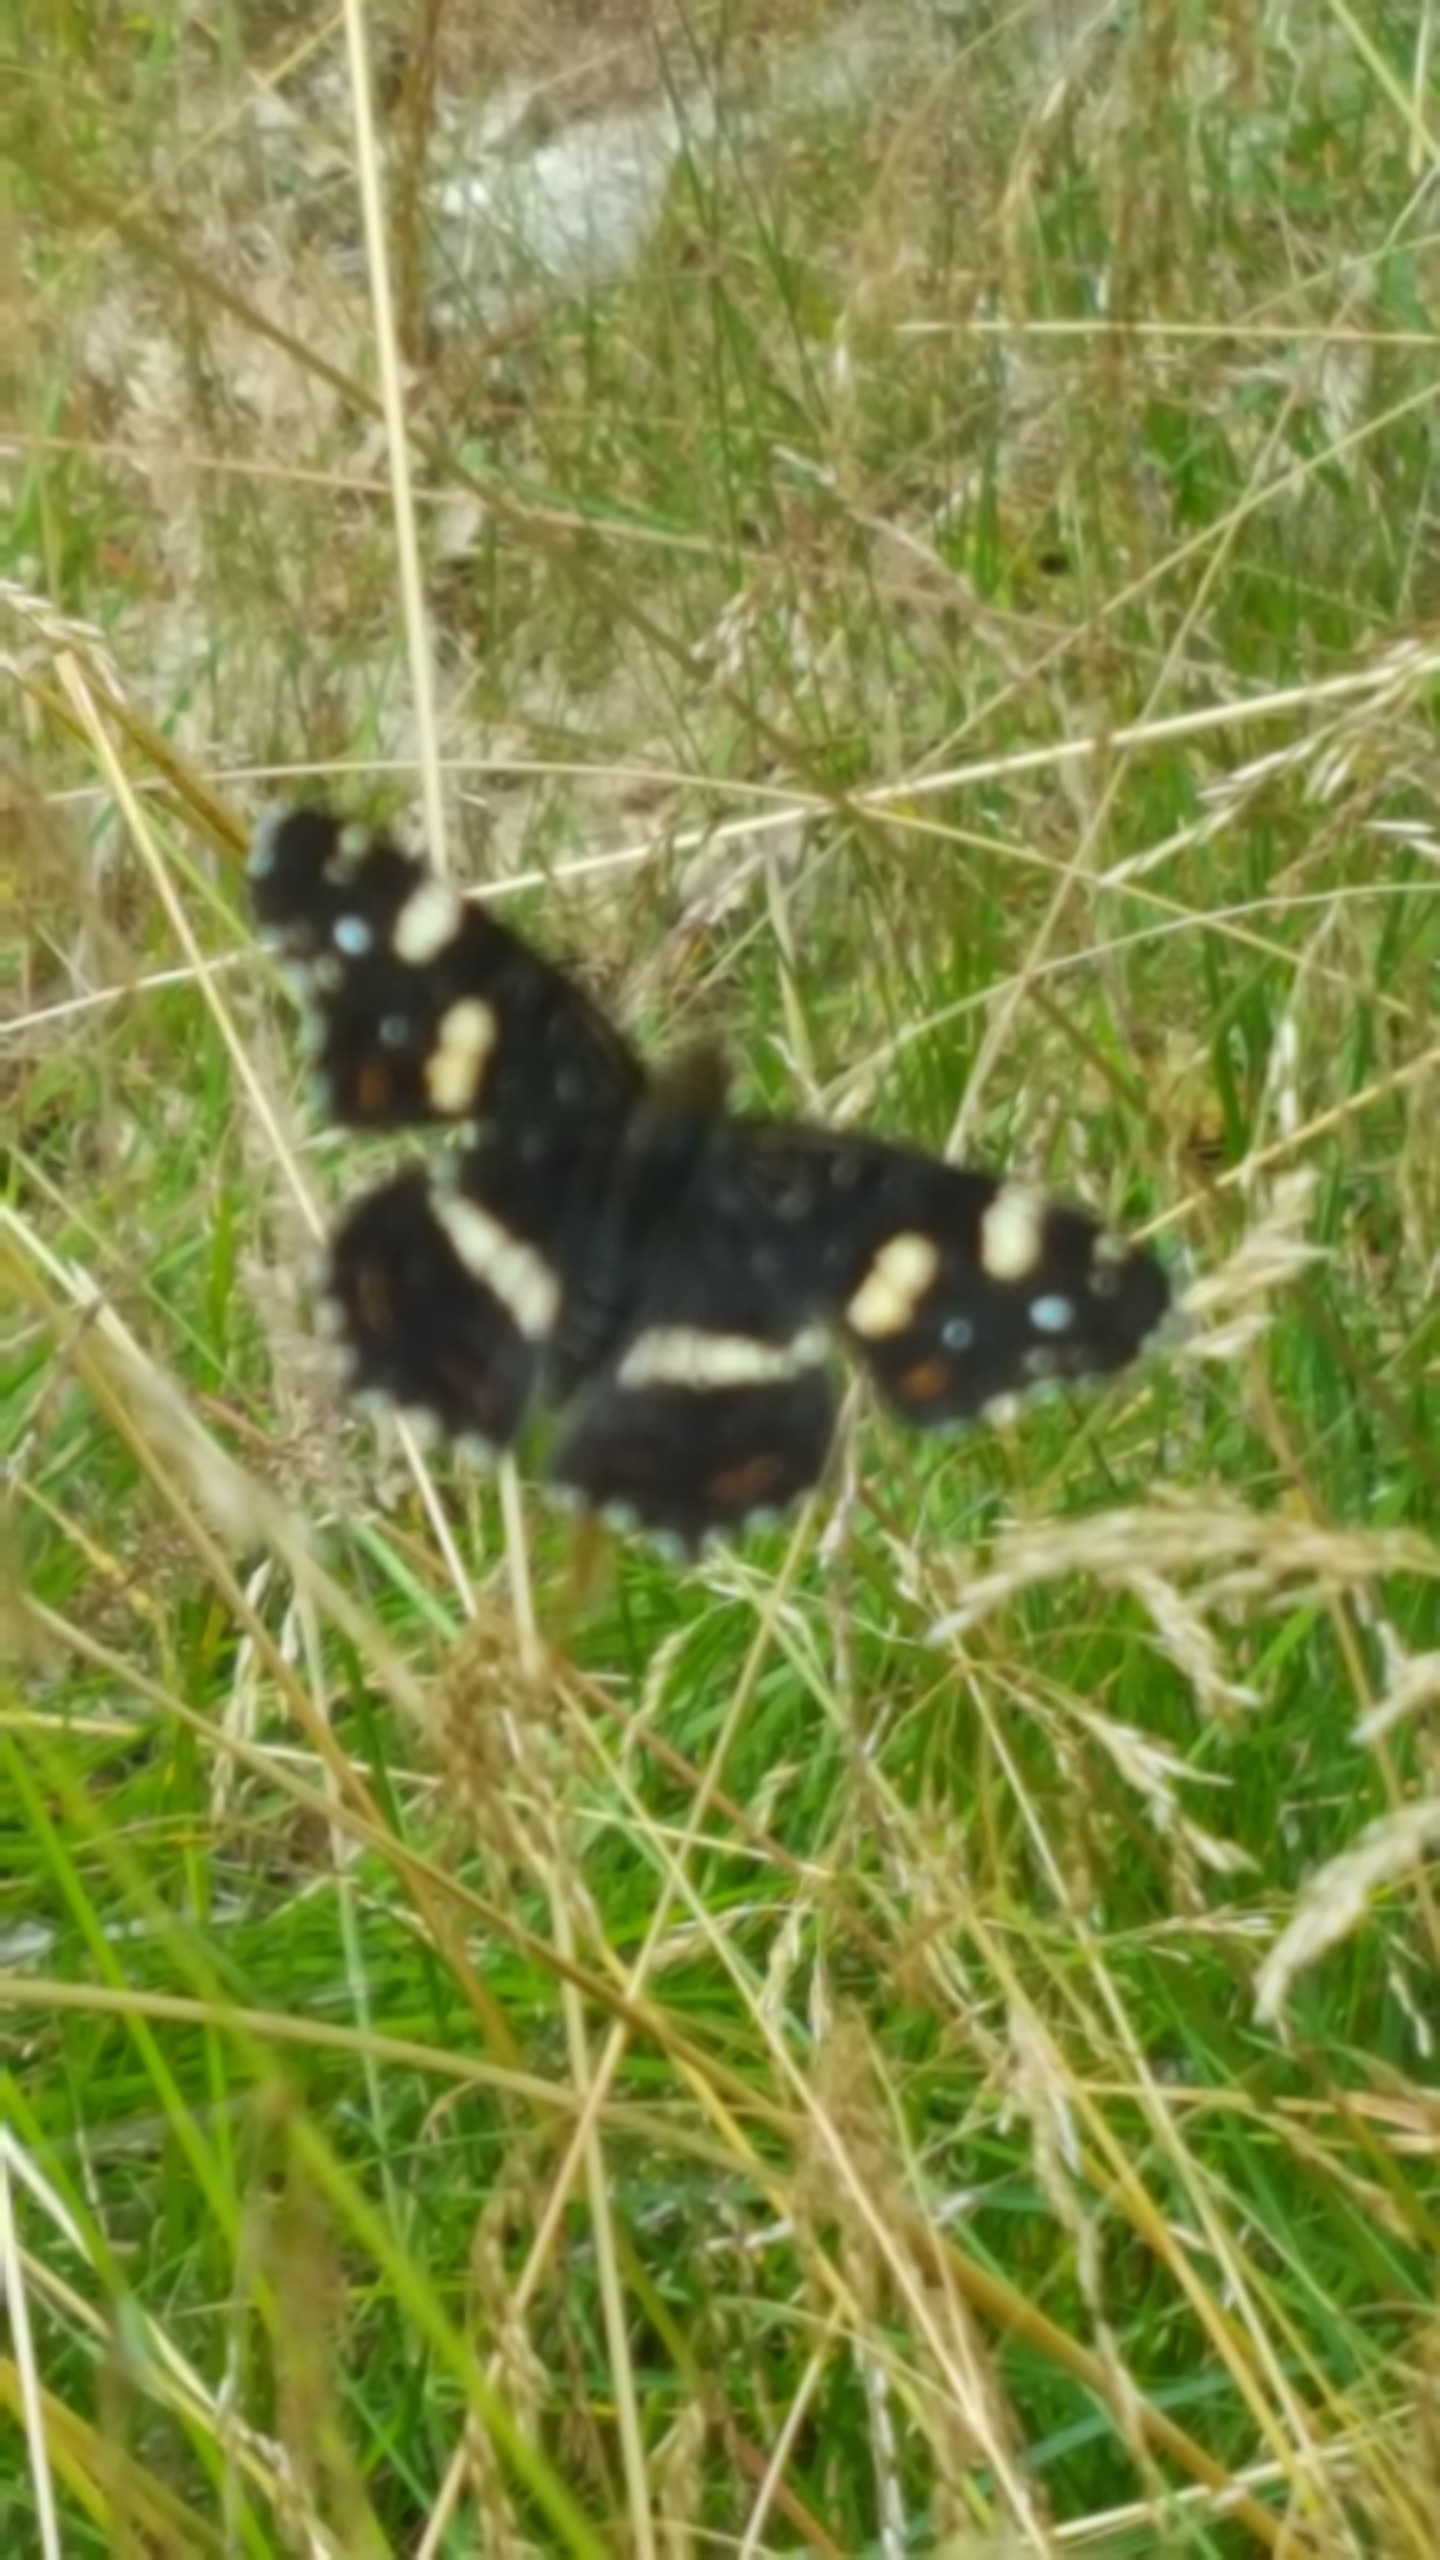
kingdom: Animalia
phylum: Arthropoda
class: Insecta
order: Lepidoptera
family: Nymphalidae
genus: Araschnia
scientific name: Araschnia levana
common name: Nældesommerfugl
